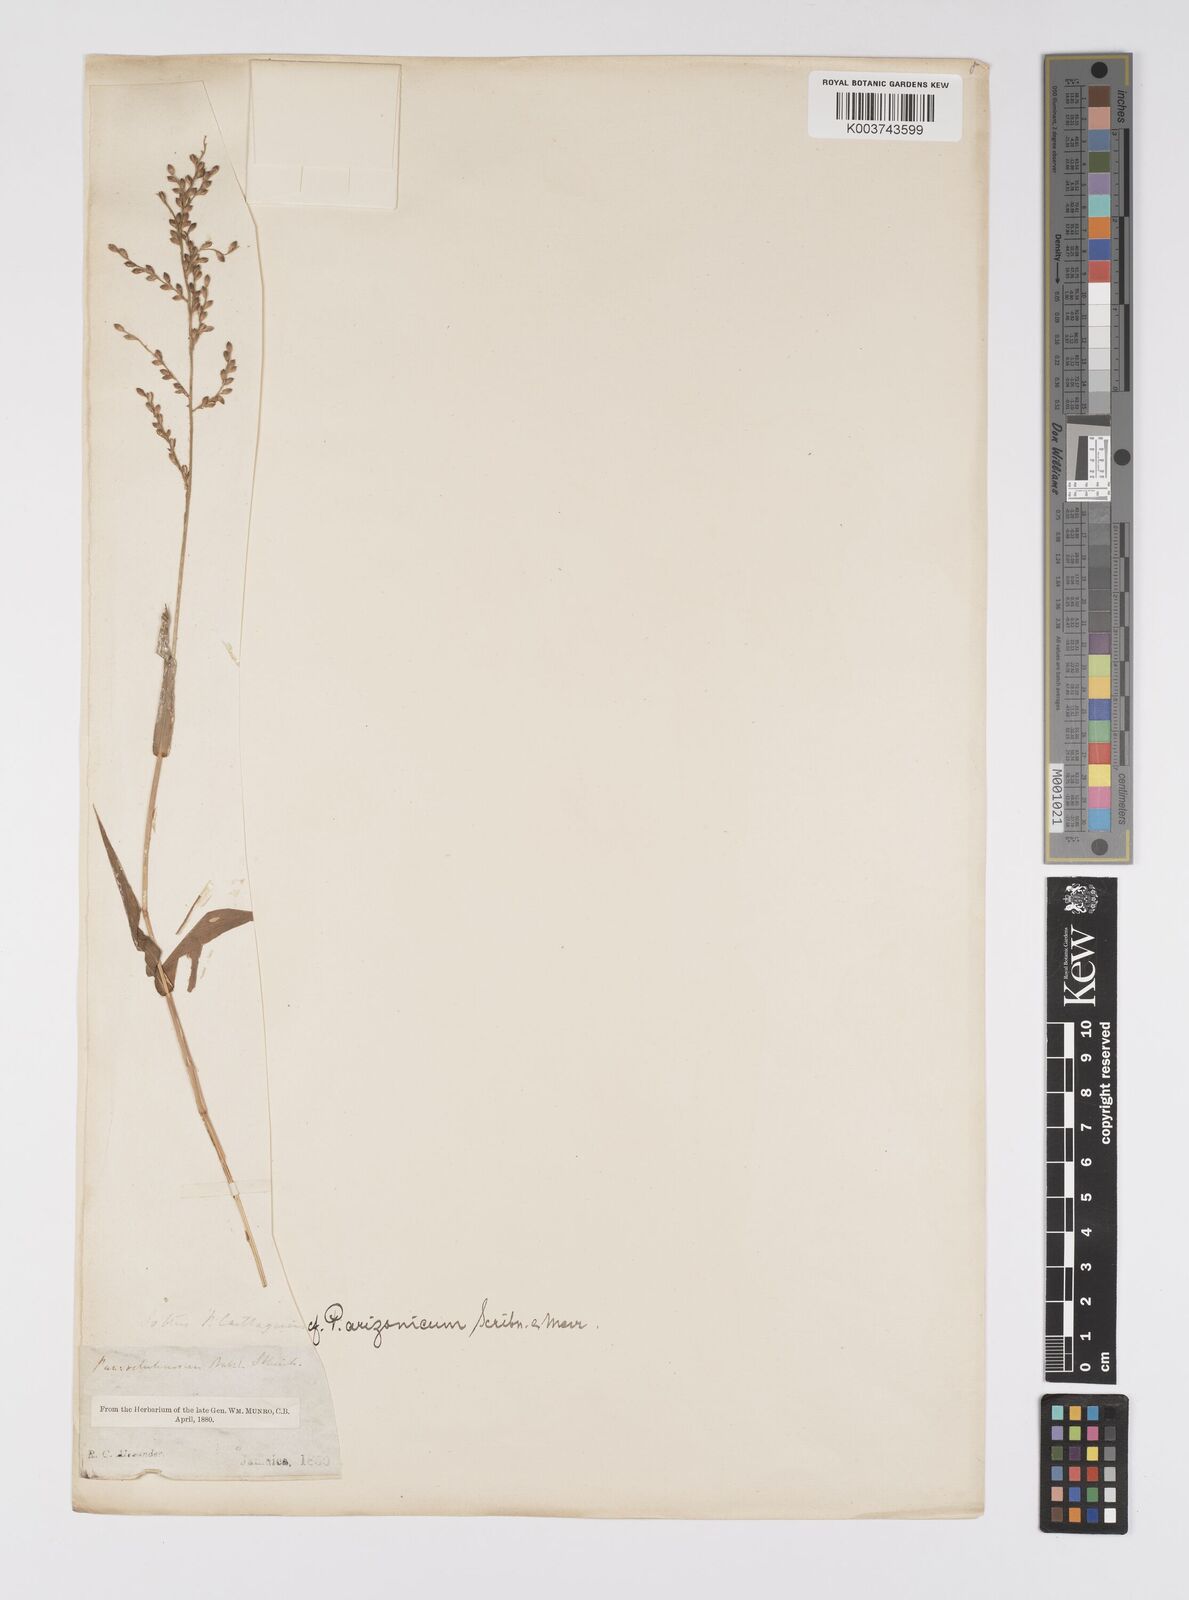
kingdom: Plantae
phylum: Tracheophyta
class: Liliopsida
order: Poales
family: Poaceae
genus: Urochloa
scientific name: Urochloa mollis
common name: Grass
